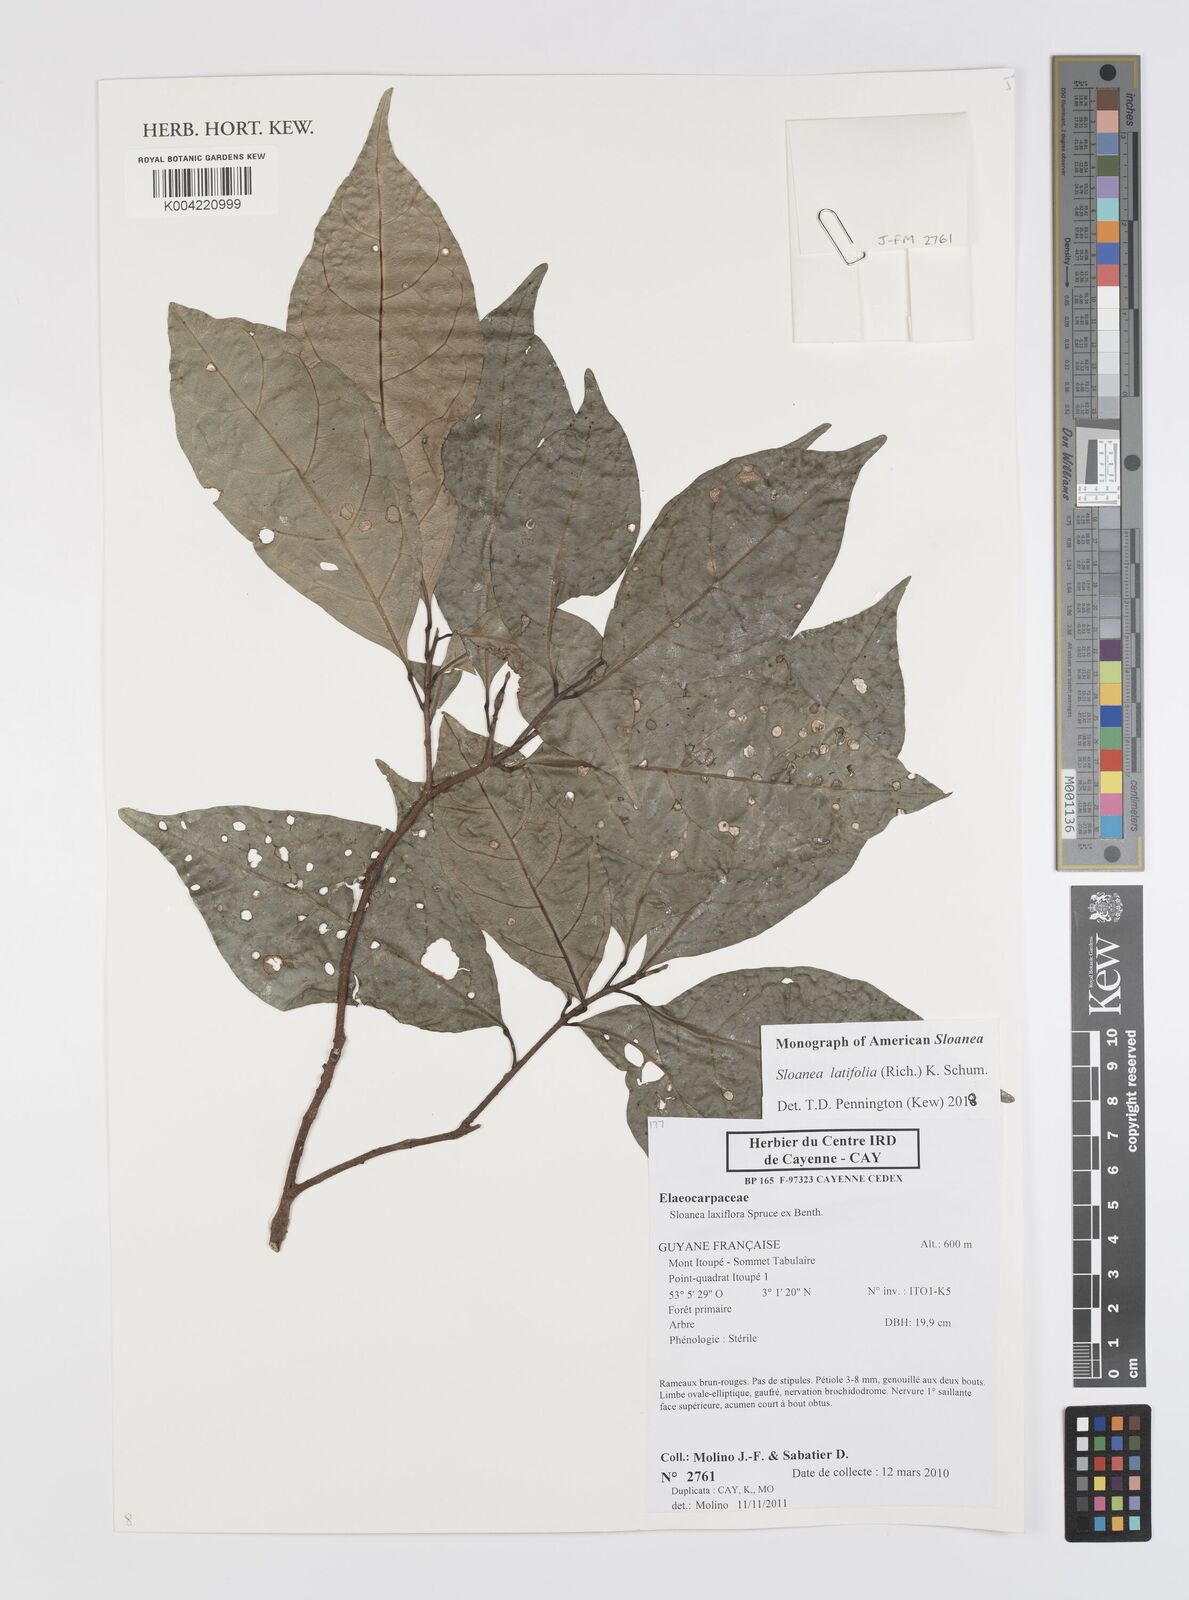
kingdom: Plantae
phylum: Tracheophyta
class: Magnoliopsida
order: Oxalidales
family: Elaeocarpaceae
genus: Sloanea
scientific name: Sloanea latifolia
